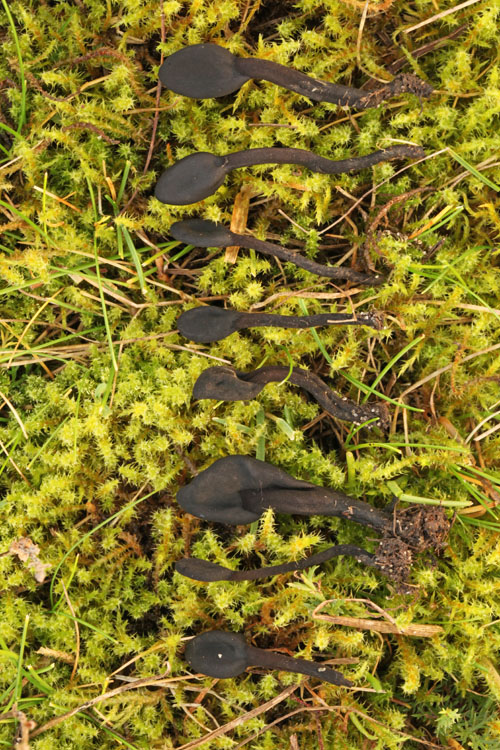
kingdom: Fungi
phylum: Ascomycota
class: Geoglossomycetes
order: Geoglossales
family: Geoglossaceae
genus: Trichoglossum
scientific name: Trichoglossum hirsutum
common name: håret jordtunge
